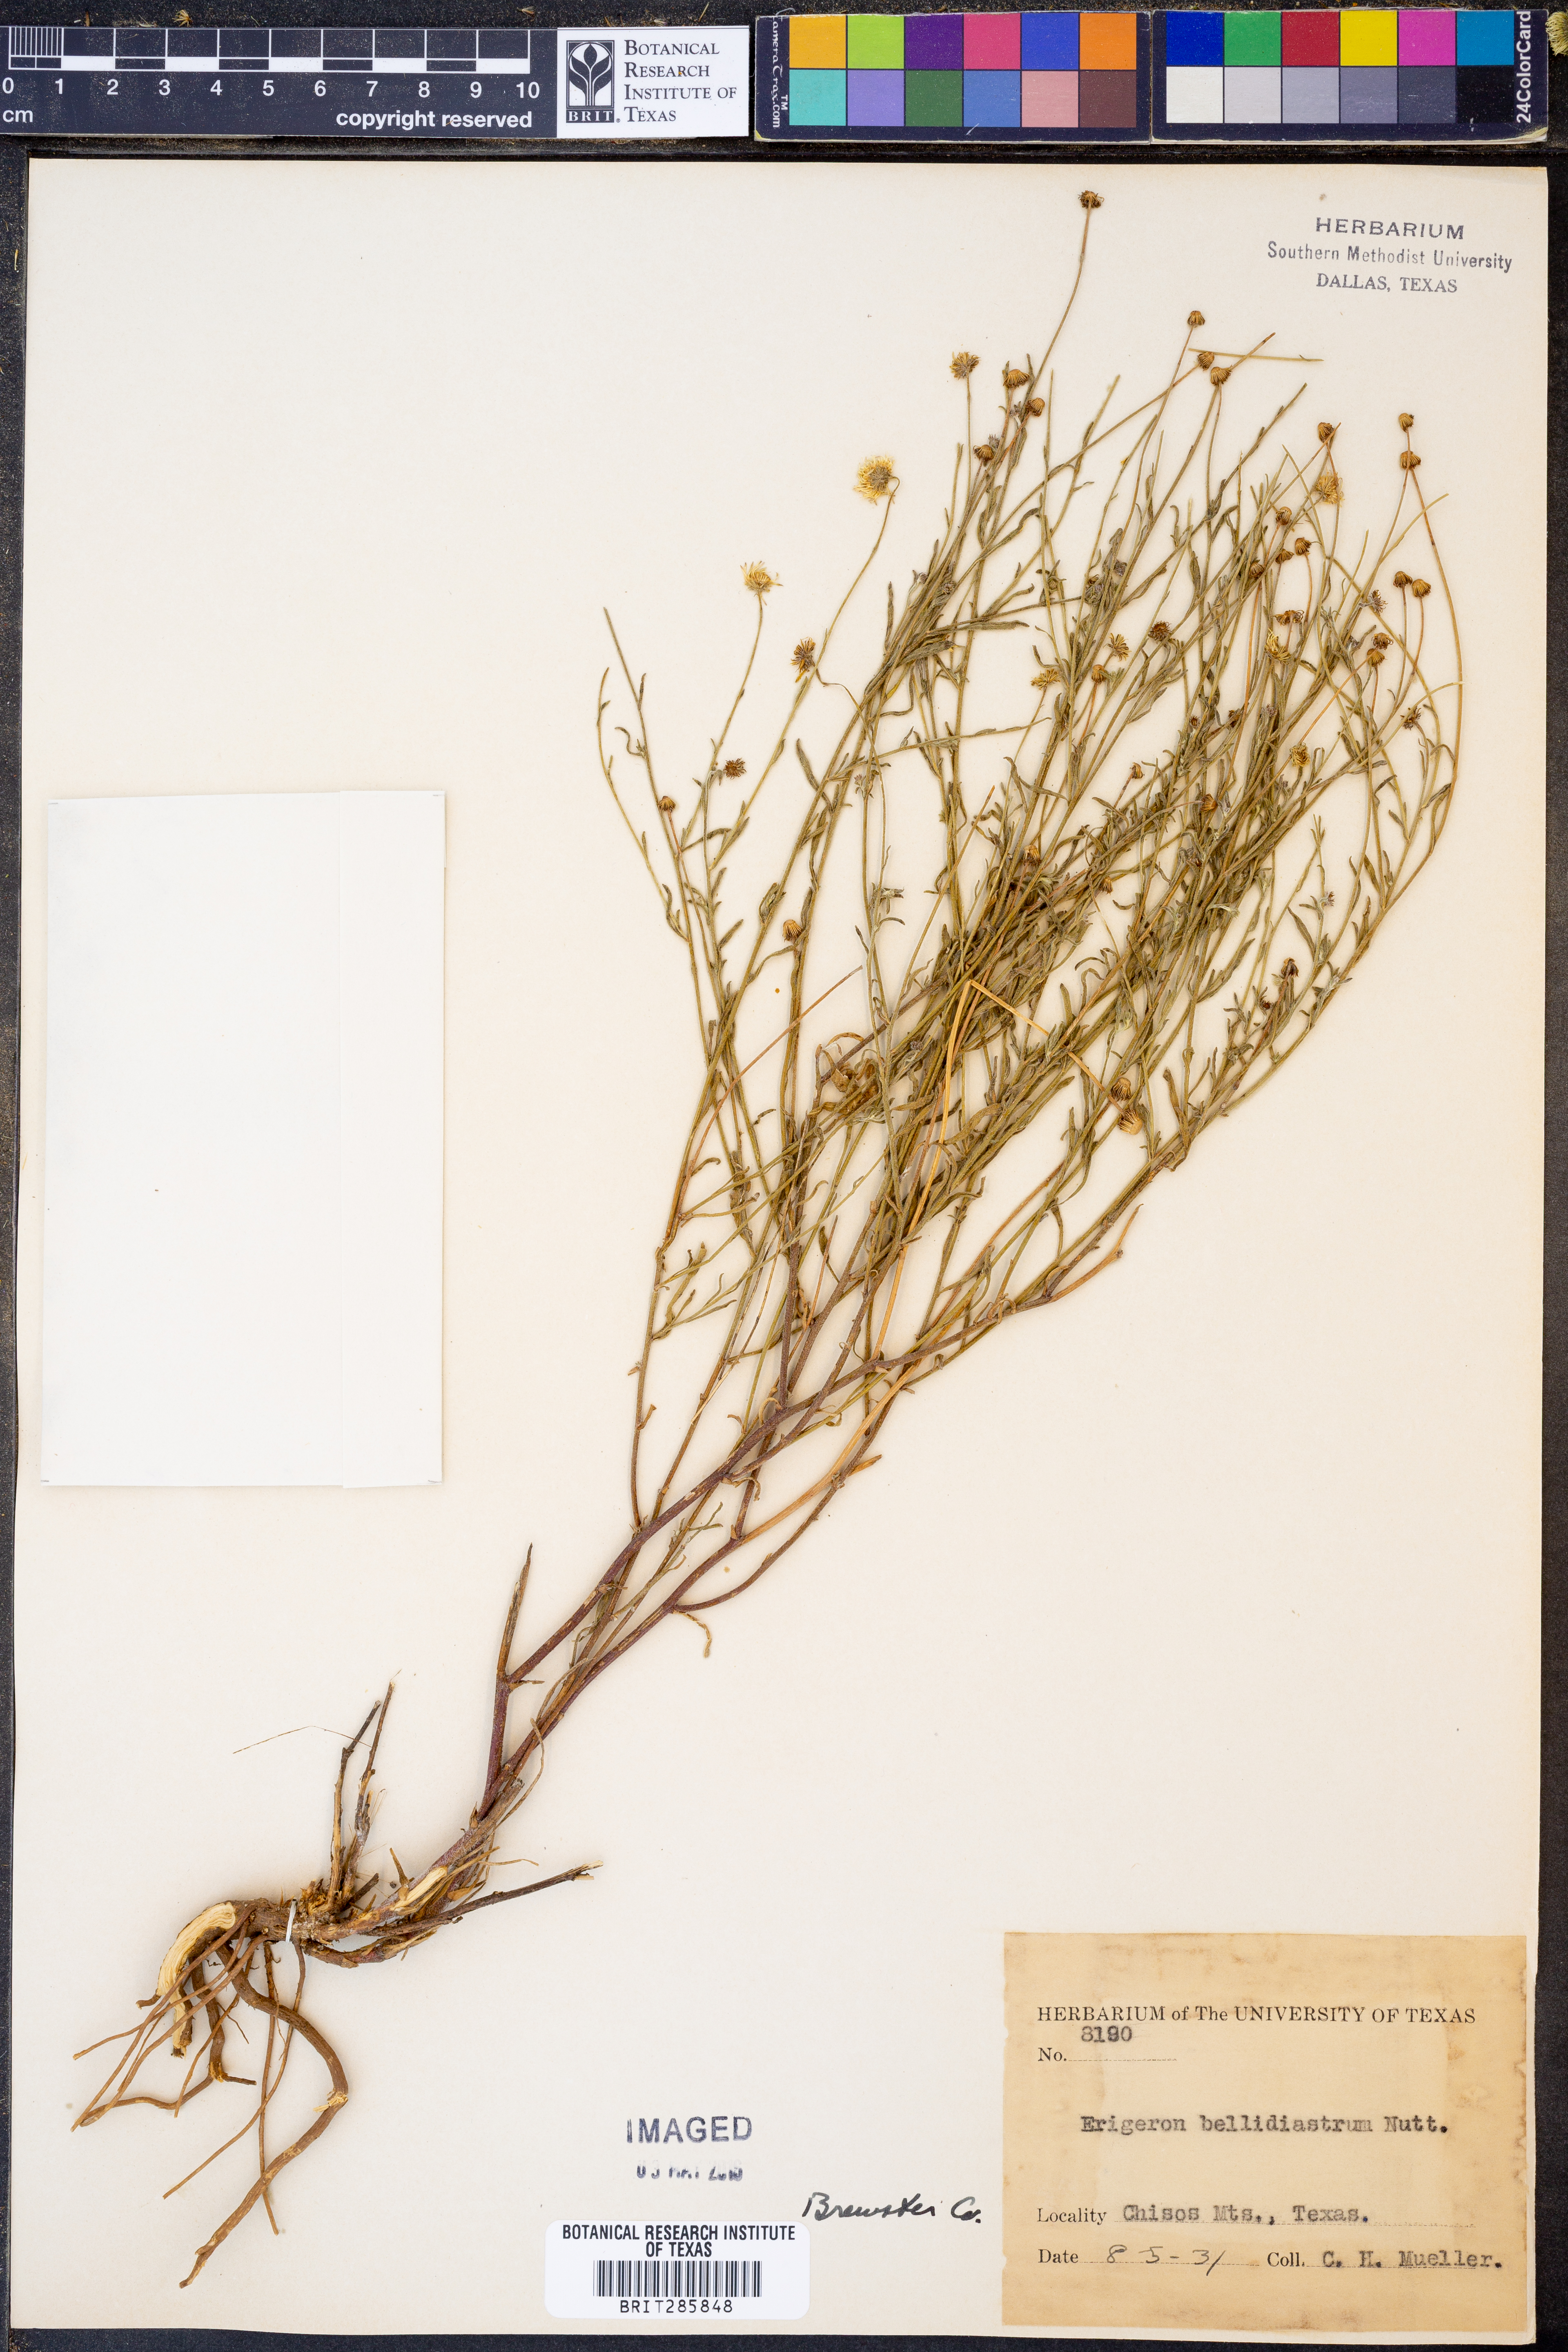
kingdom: Plantae
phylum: Tracheophyta
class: Magnoliopsida
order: Asterales
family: Asteraceae
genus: Erigeron
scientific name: Erigeron bellidiastrum
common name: Sand fleabane
